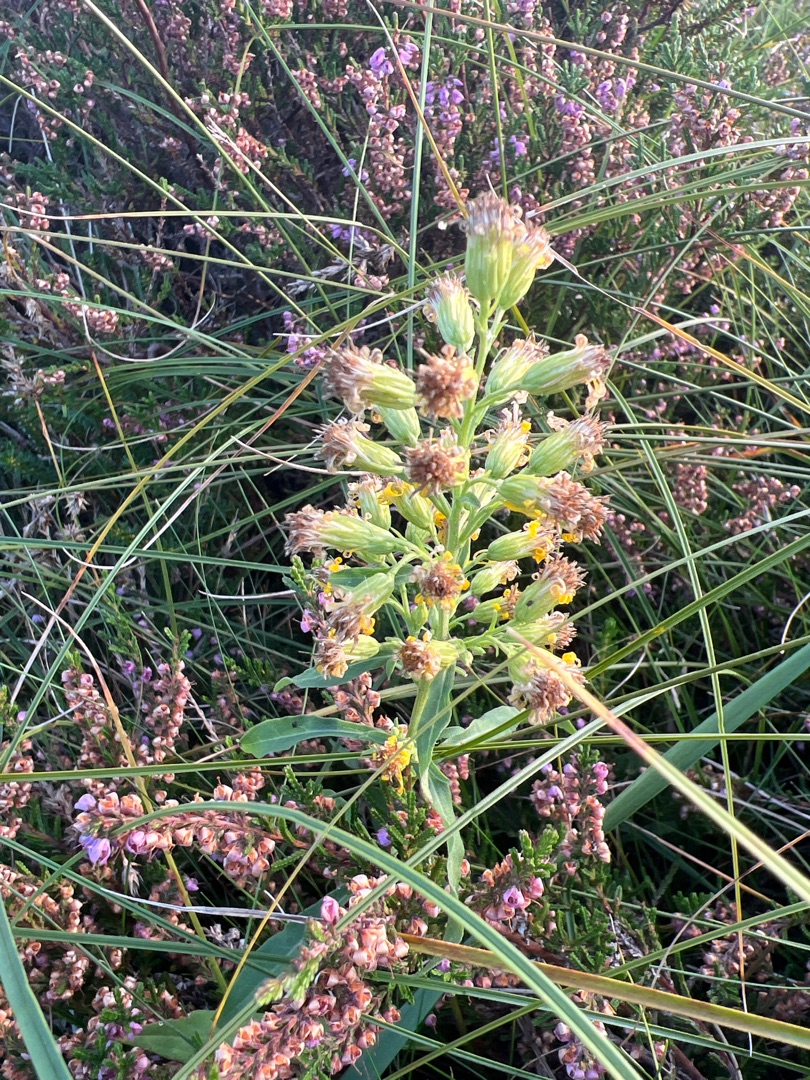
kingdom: Plantae
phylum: Tracheophyta
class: Magnoliopsida
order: Asterales
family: Asteraceae
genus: Solidago
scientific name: Solidago virgaurea
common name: Almindelig gyldenris
